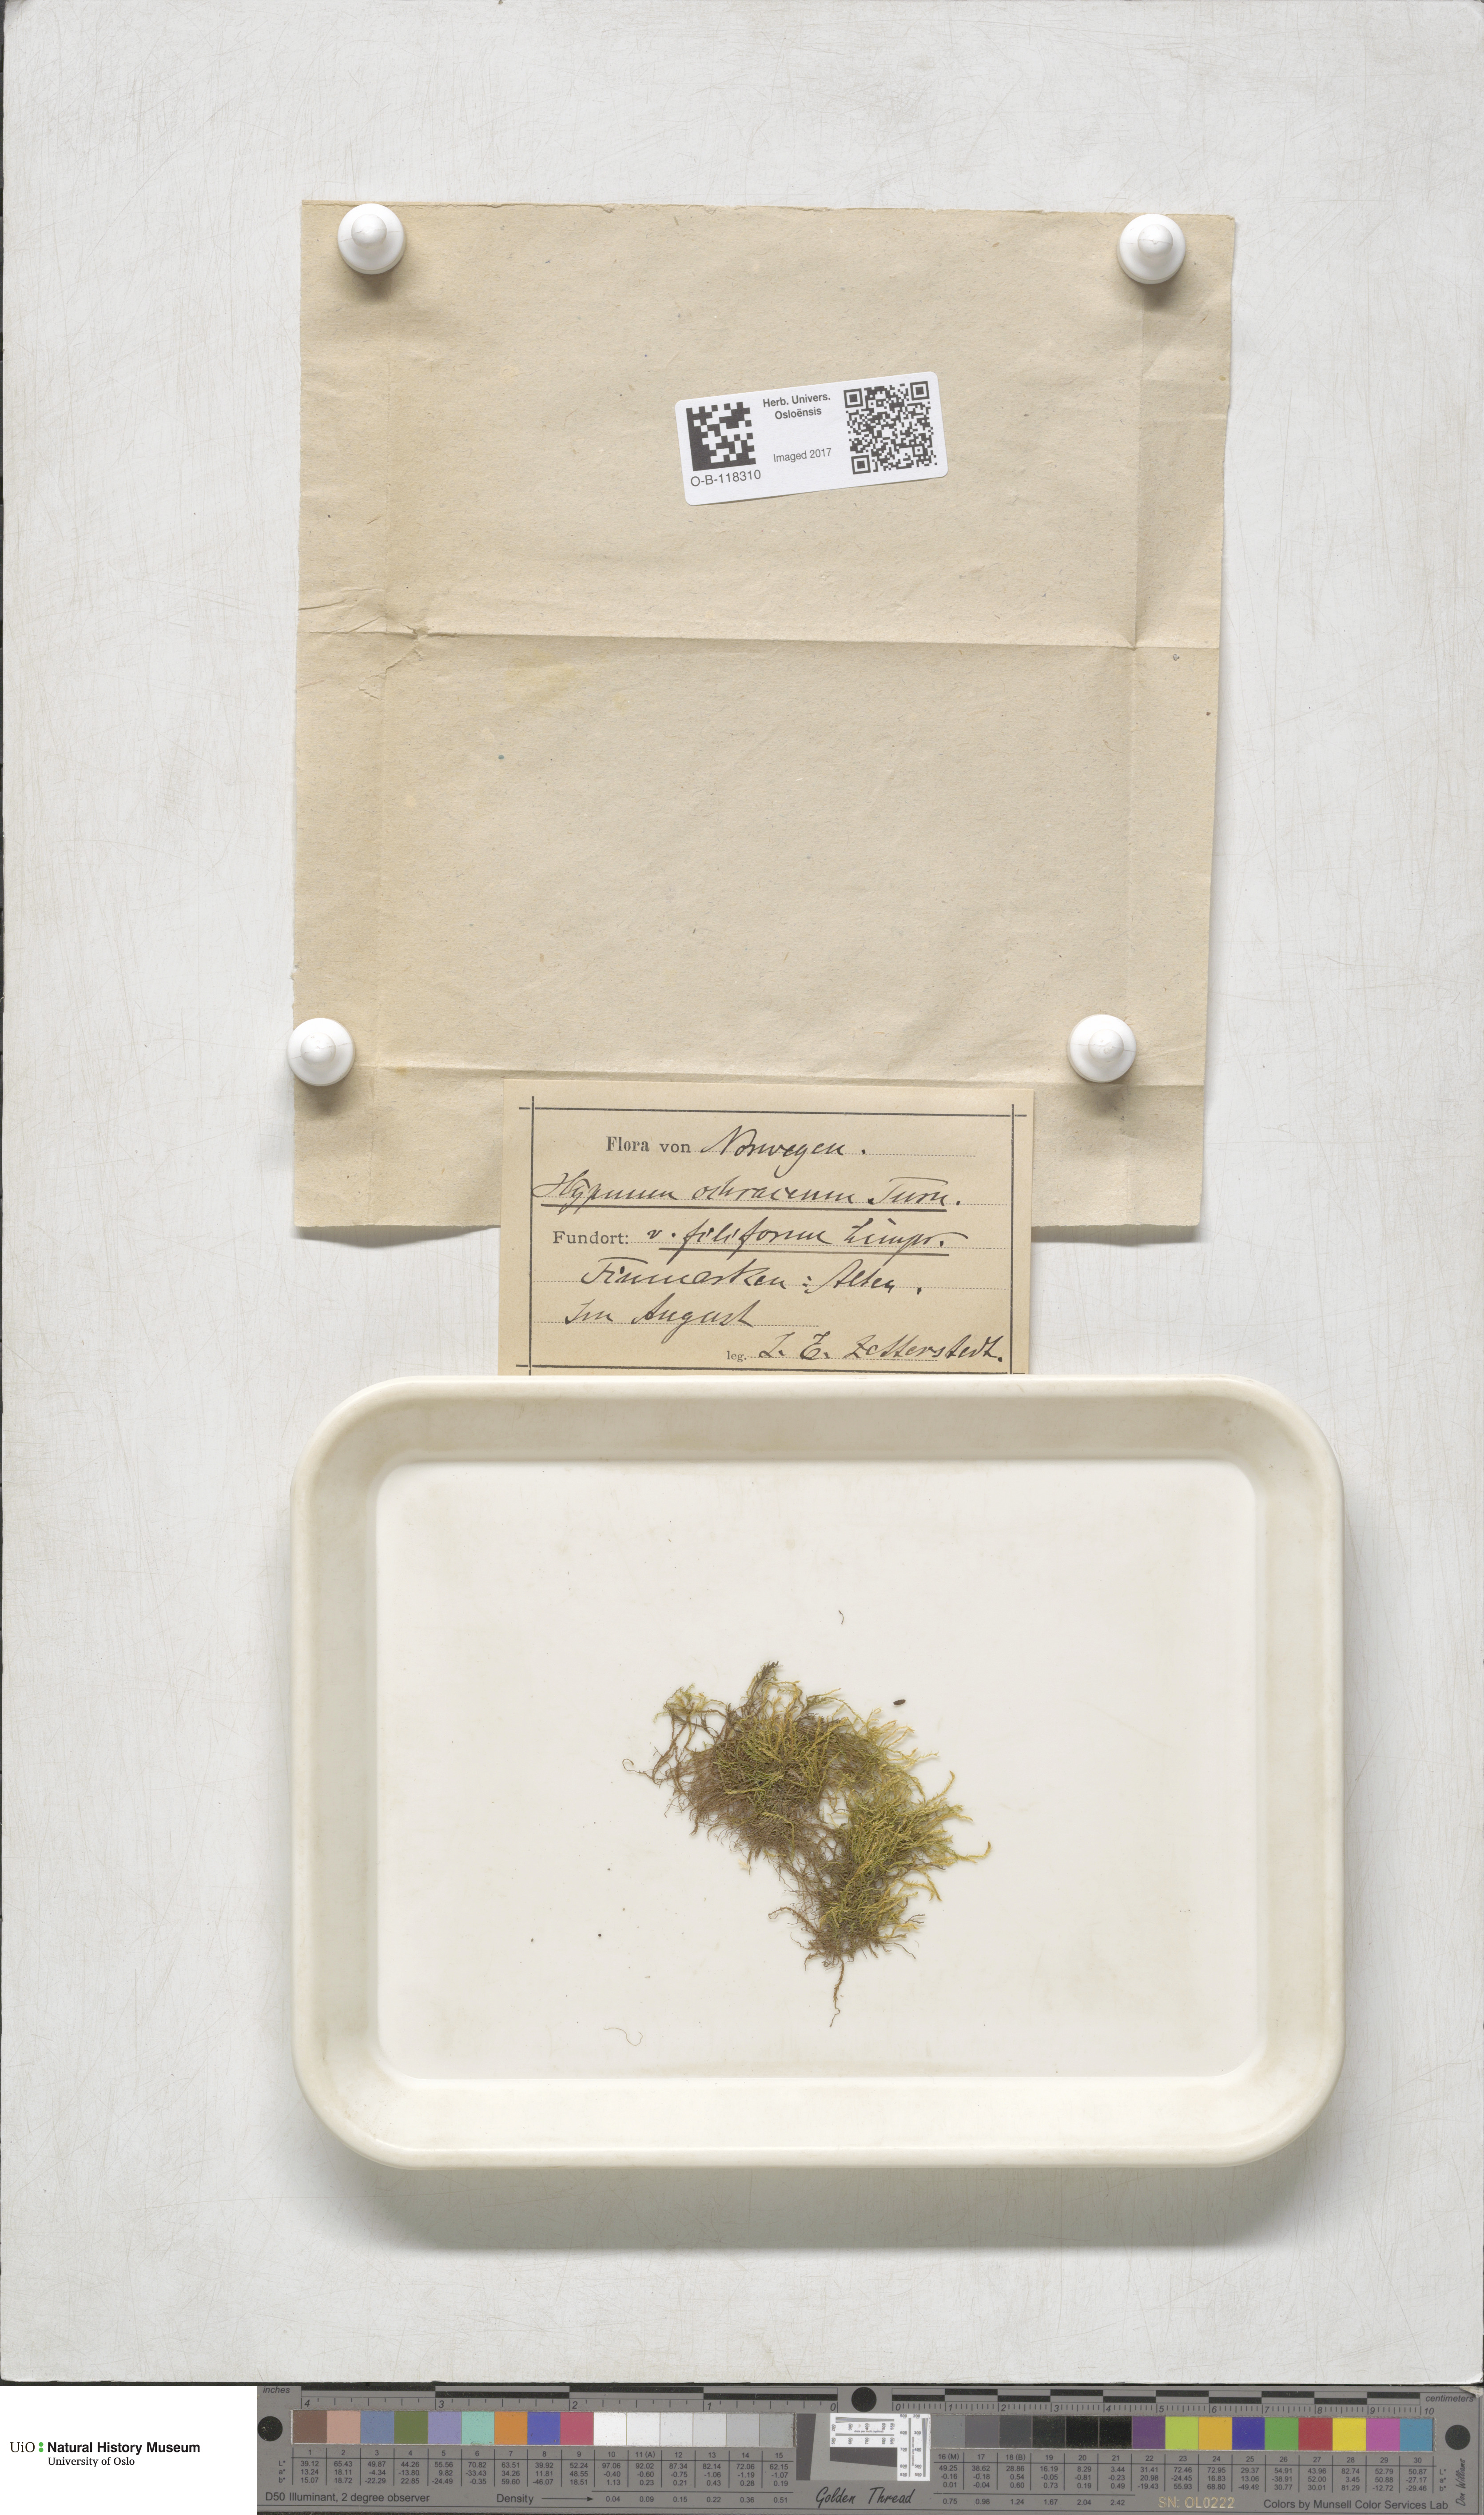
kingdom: Plantae
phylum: Bryophyta
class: Bryopsida
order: Hypnales
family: Scorpidiaceae
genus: Hygrohypnella
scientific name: Hygrohypnella ochracea
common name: Hygrohypnum moss
